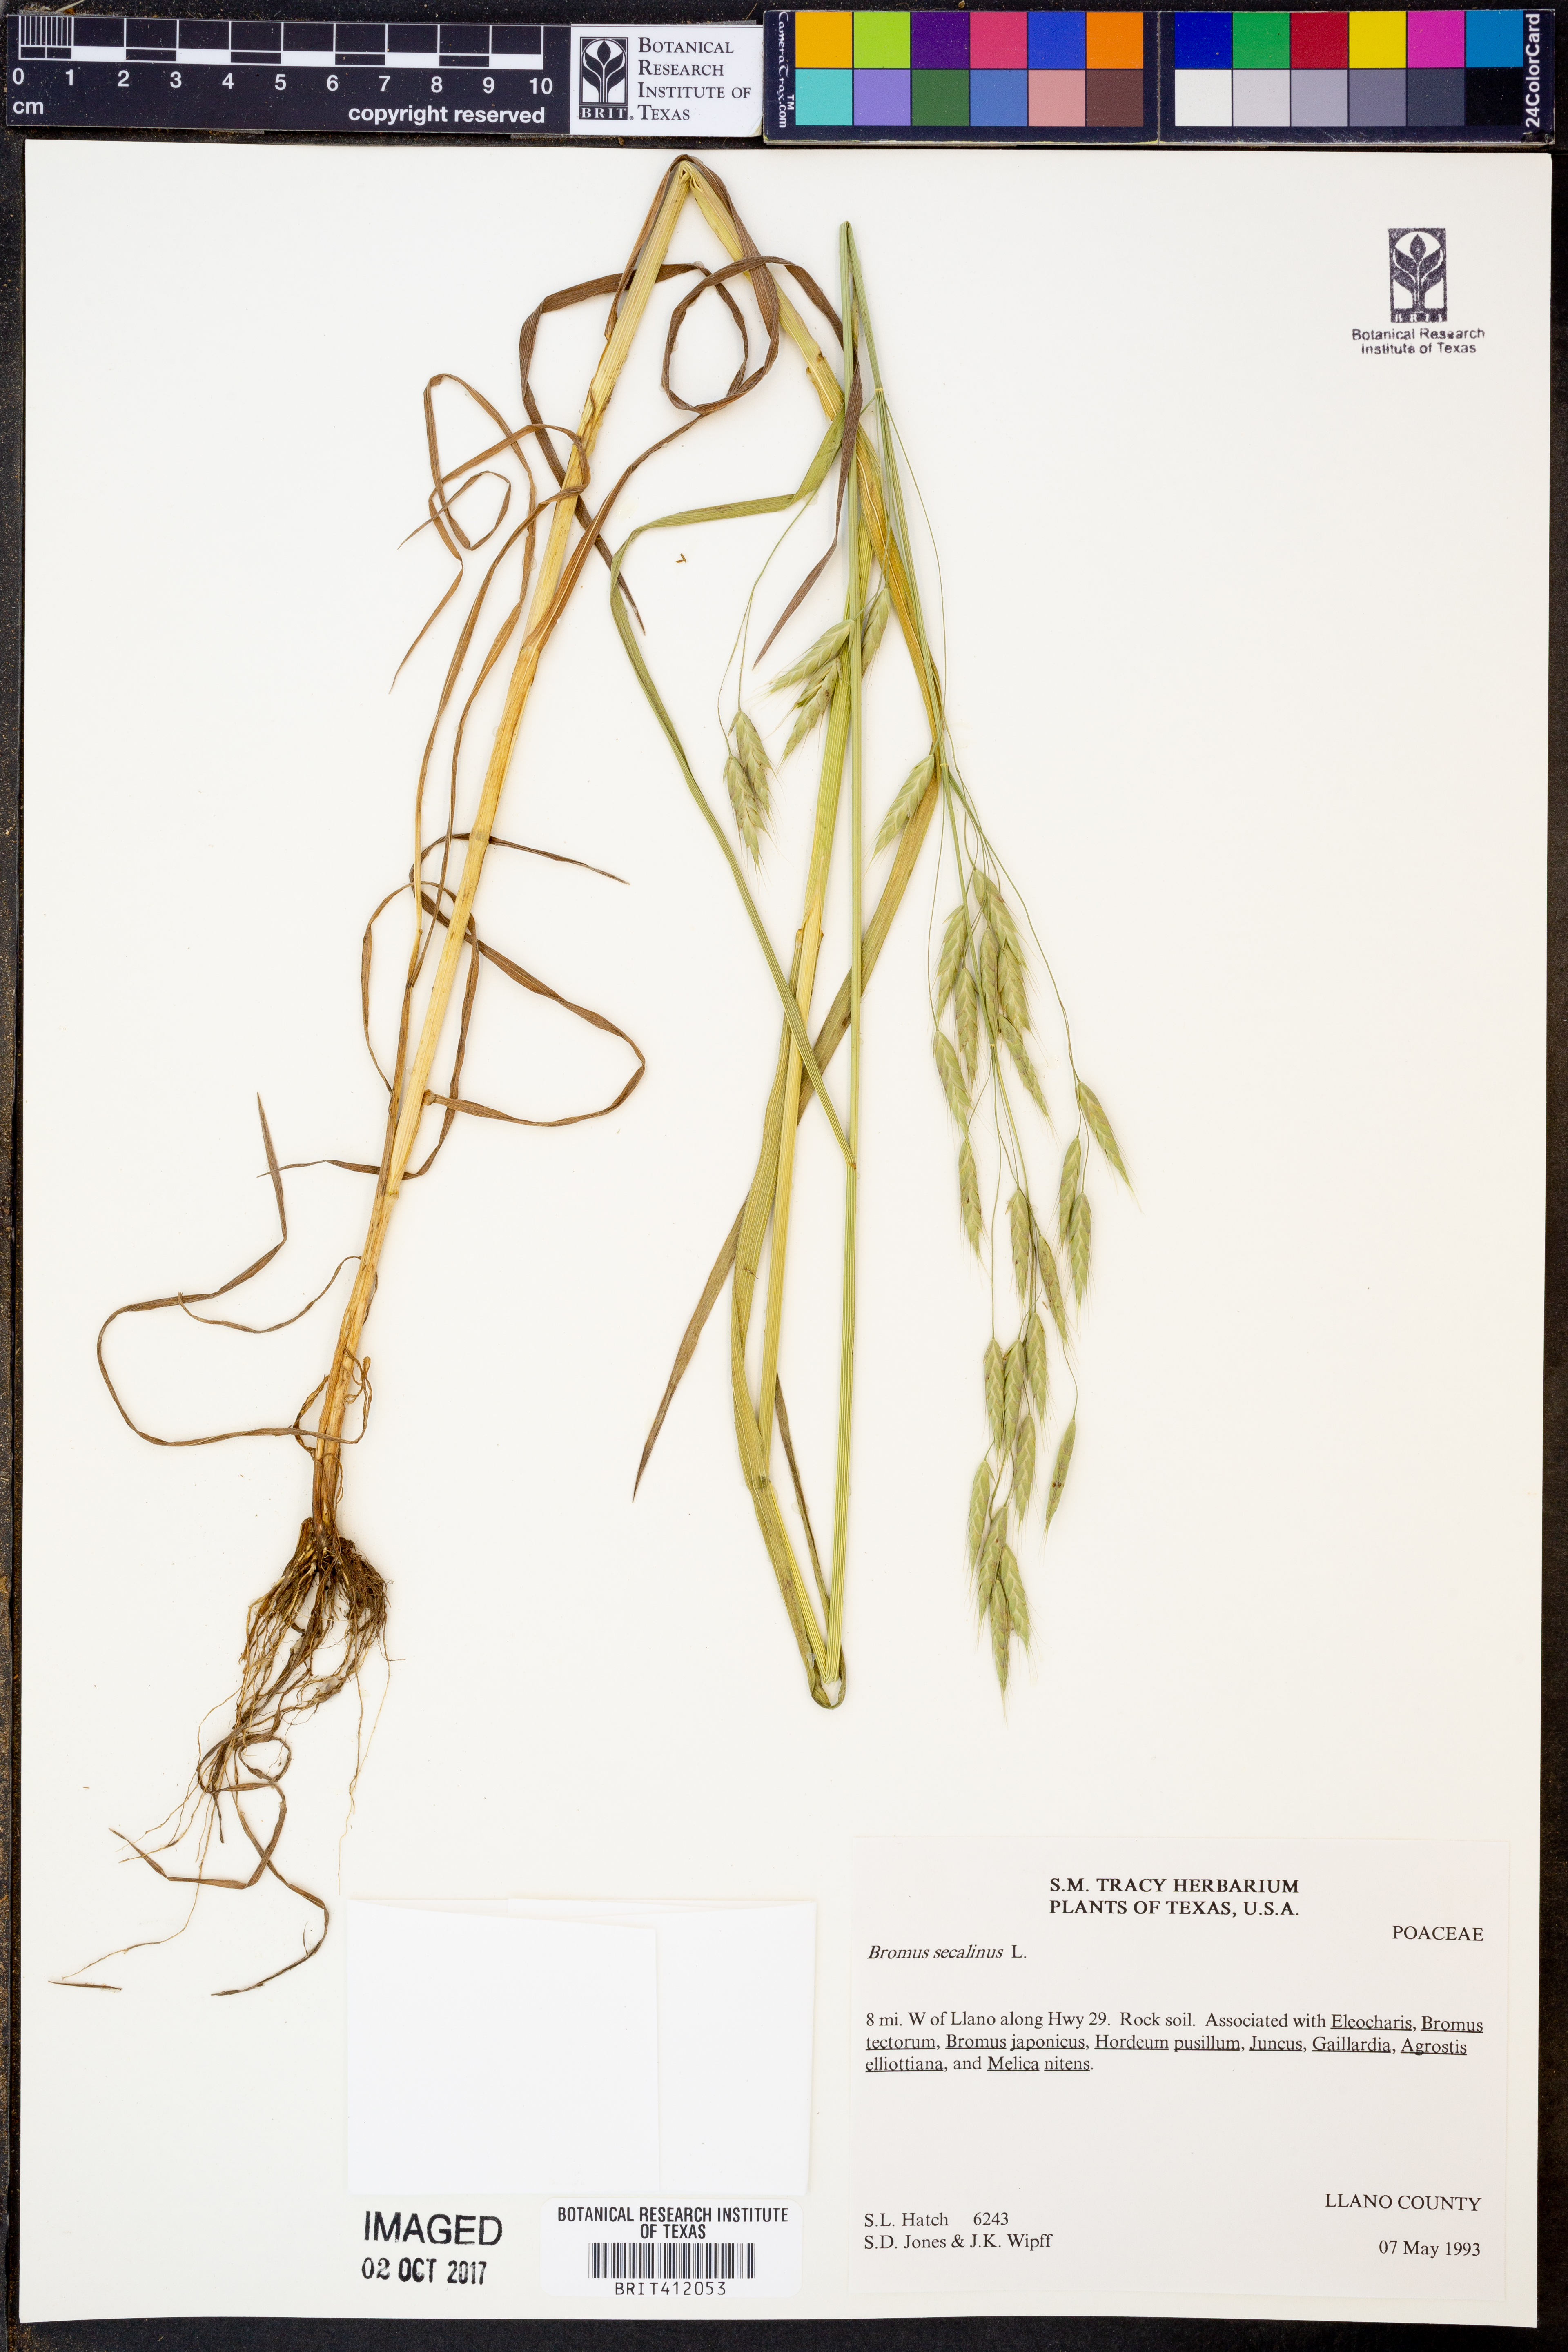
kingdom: Plantae
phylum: Tracheophyta
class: Liliopsida
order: Poales
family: Poaceae
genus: Bromus
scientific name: Bromus secalinus
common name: Rye brome
